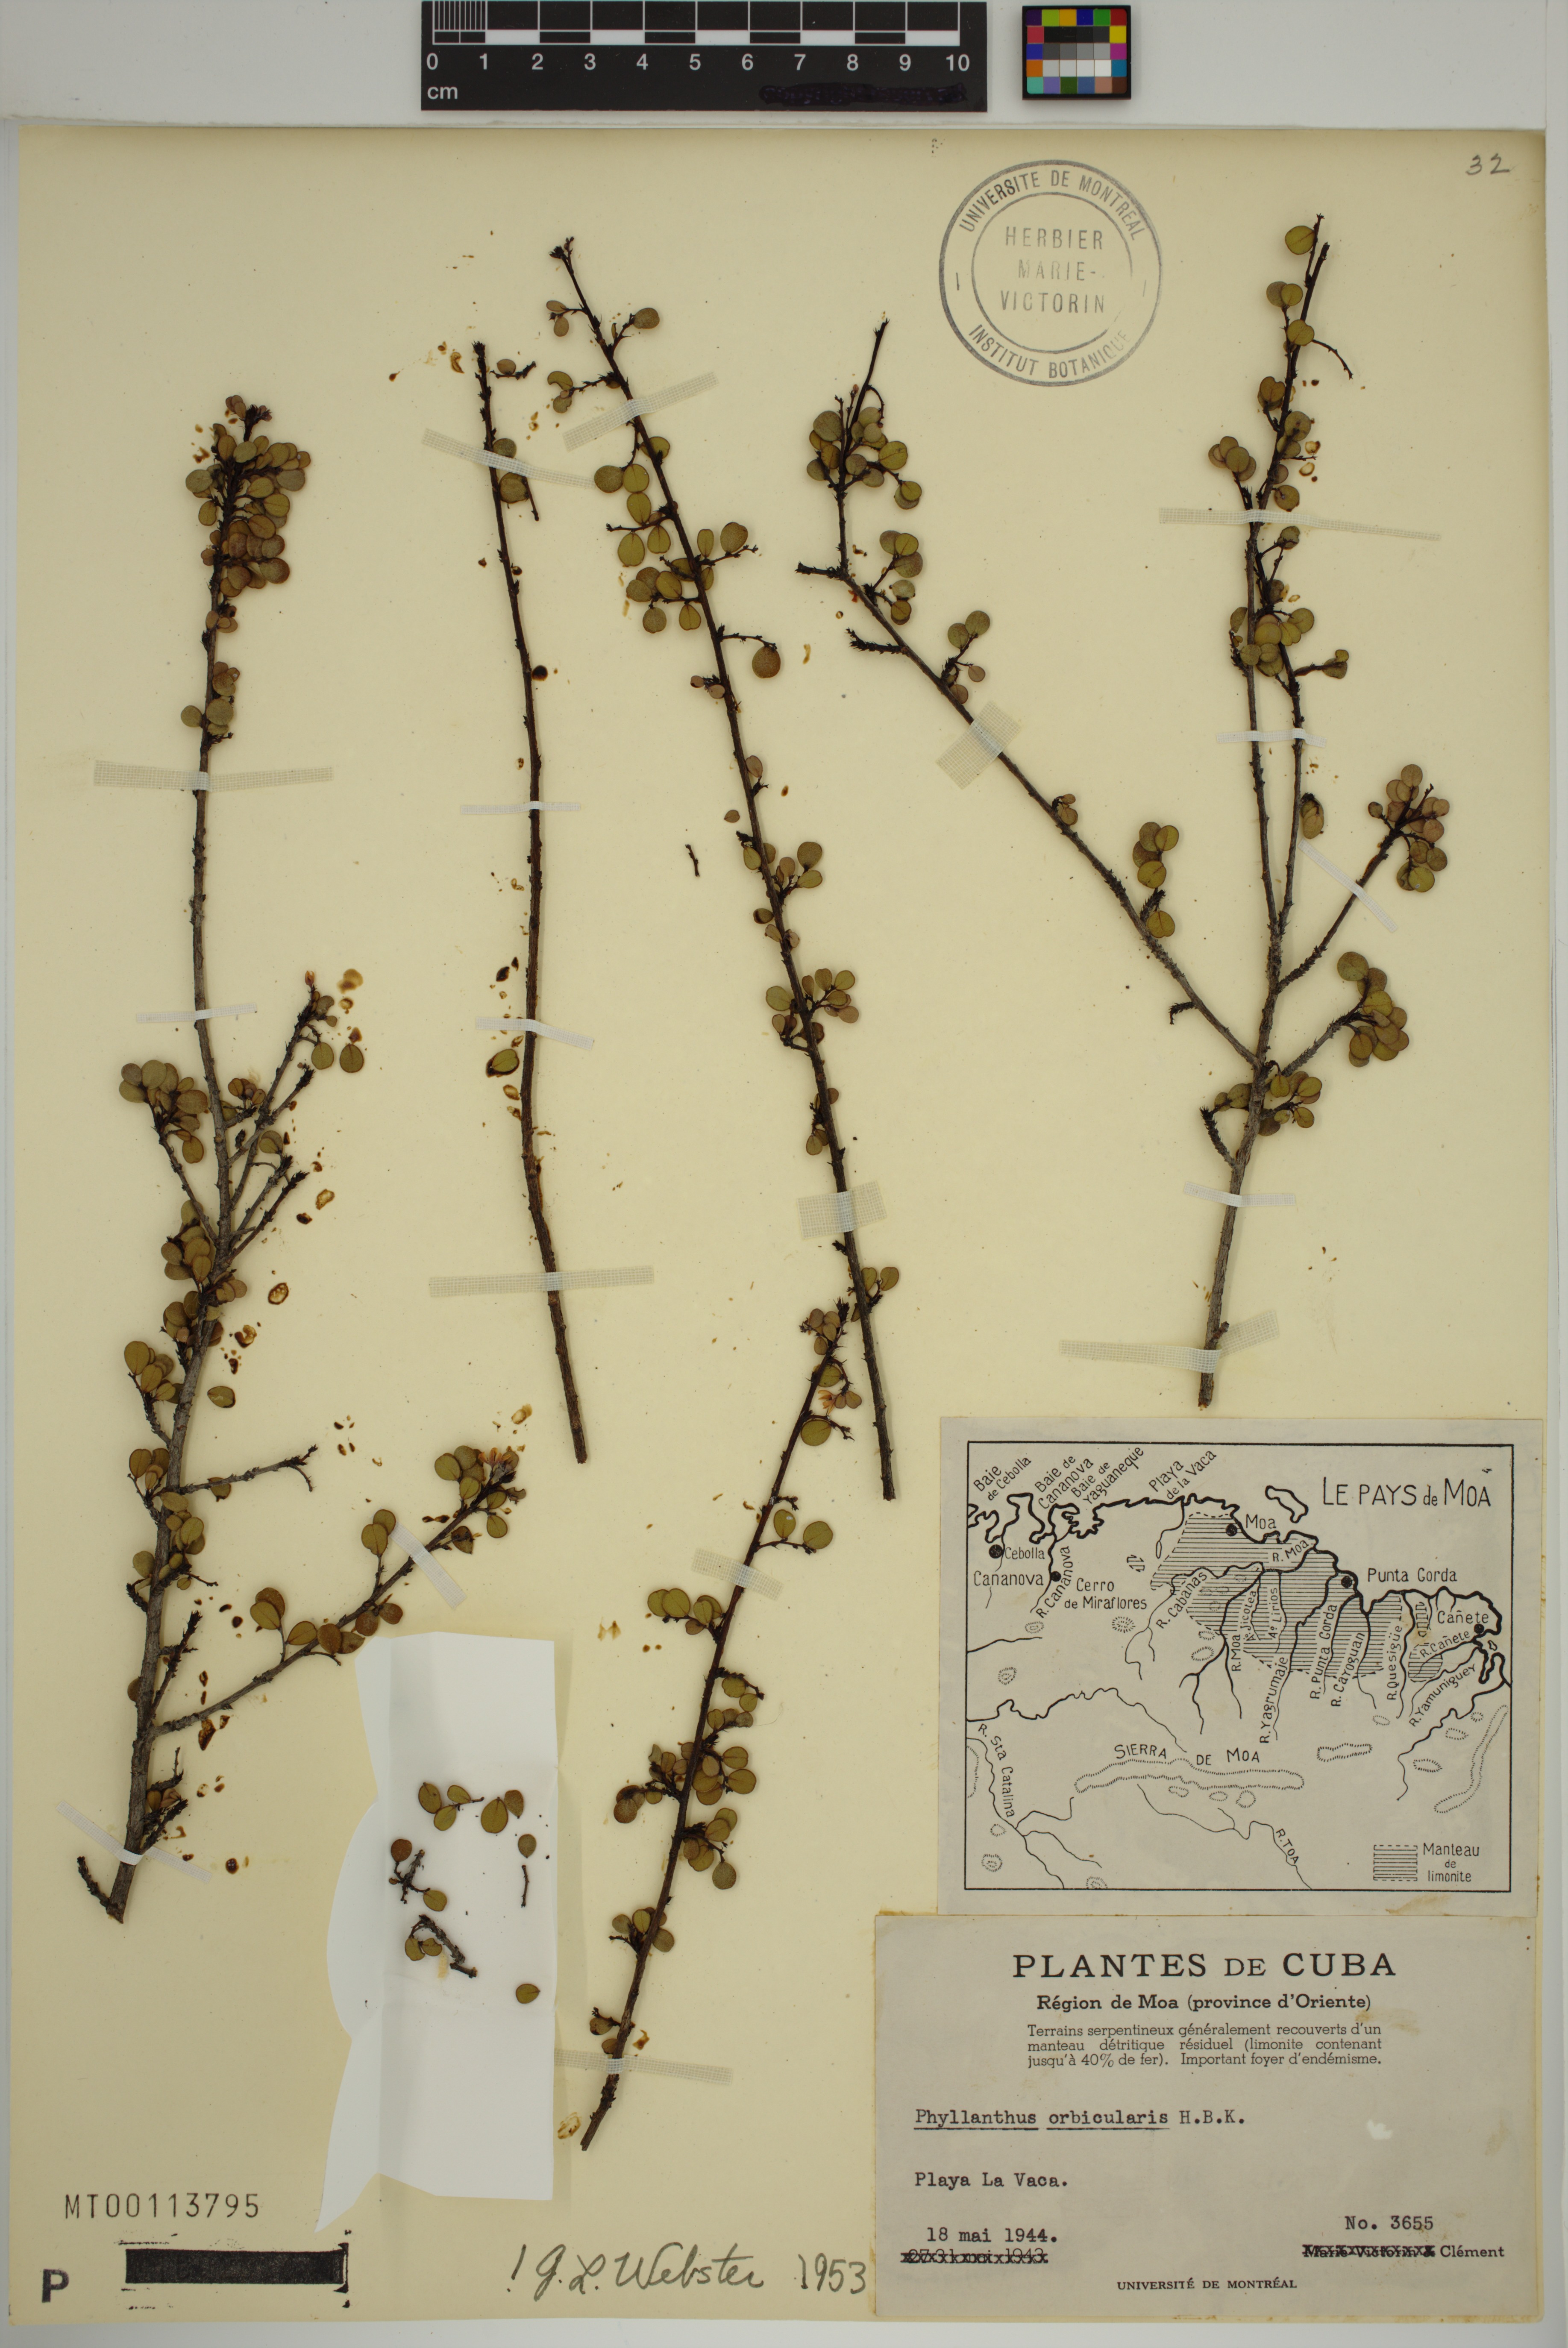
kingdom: Plantae
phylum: Tracheophyta
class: Magnoliopsida
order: Malpighiales
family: Phyllanthaceae
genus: Phyllanthus
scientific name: Phyllanthus orbicularis
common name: Wedge leaf-flower
